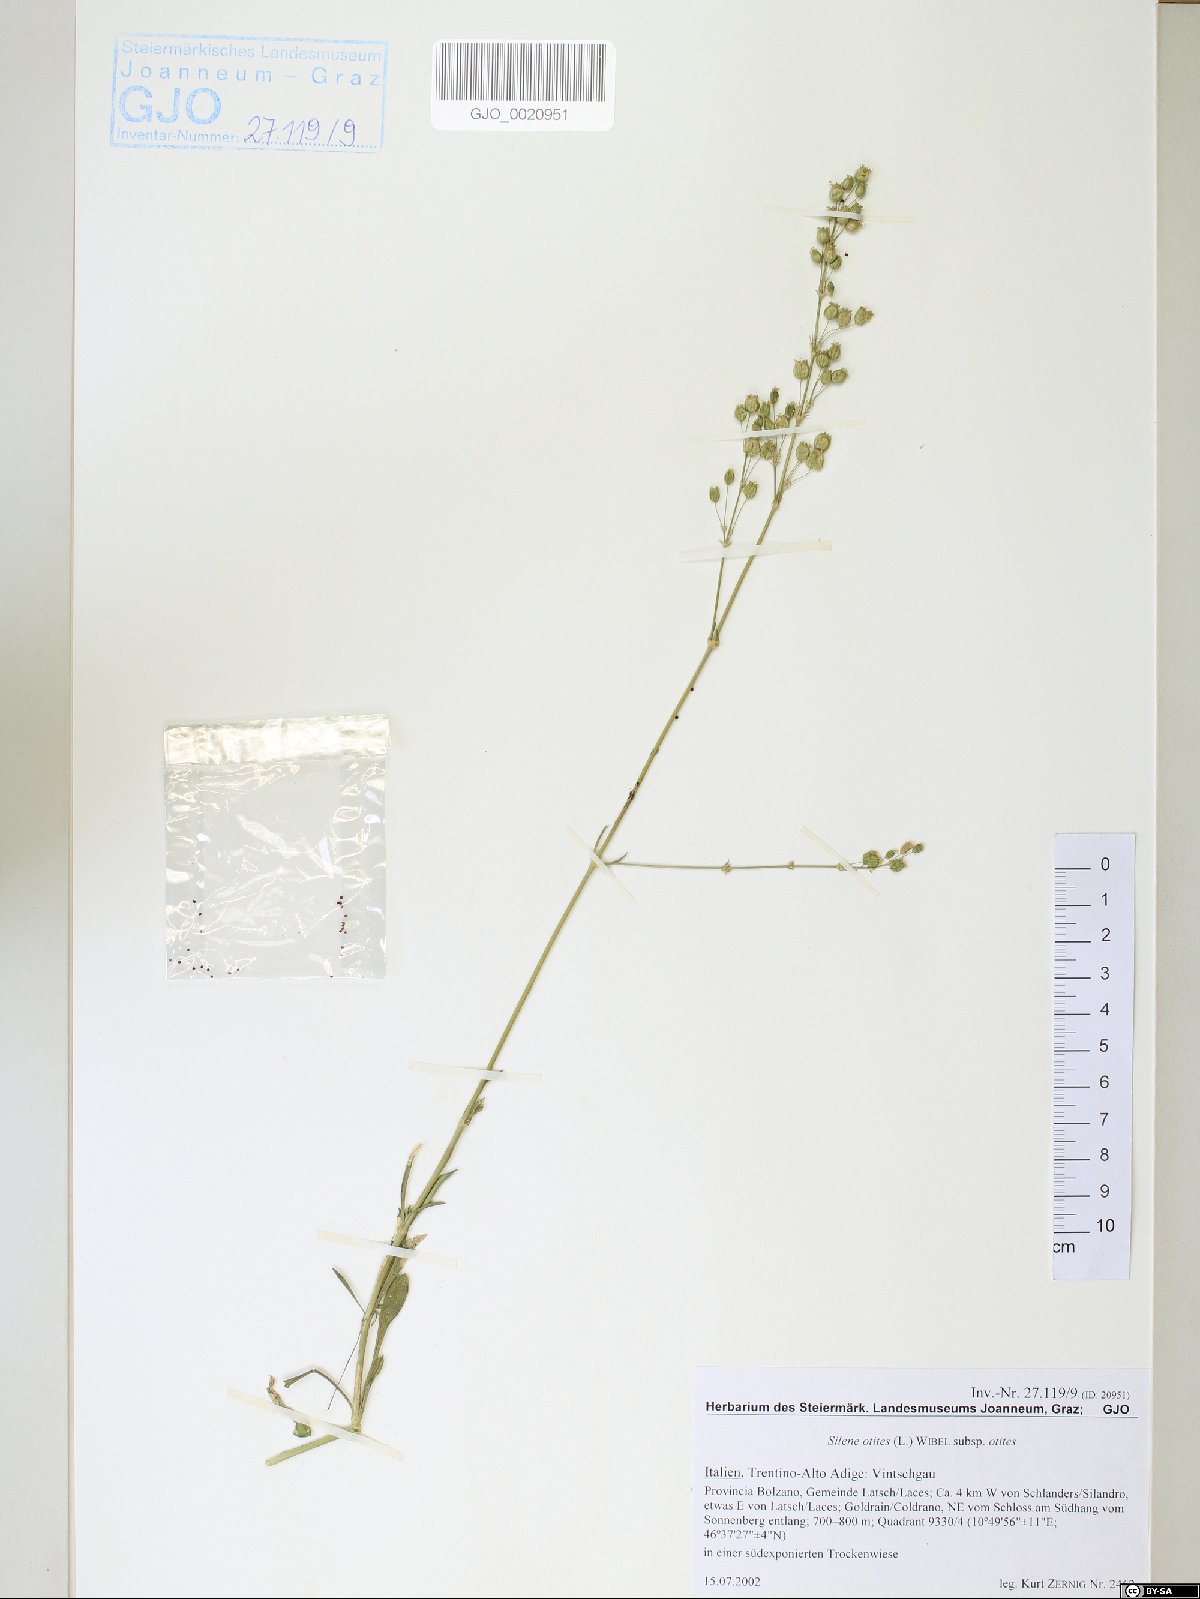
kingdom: Plantae
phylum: Tracheophyta
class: Magnoliopsida
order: Caryophyllales
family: Caryophyllaceae
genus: Silene
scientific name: Silene otites
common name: Spanish catchfly
